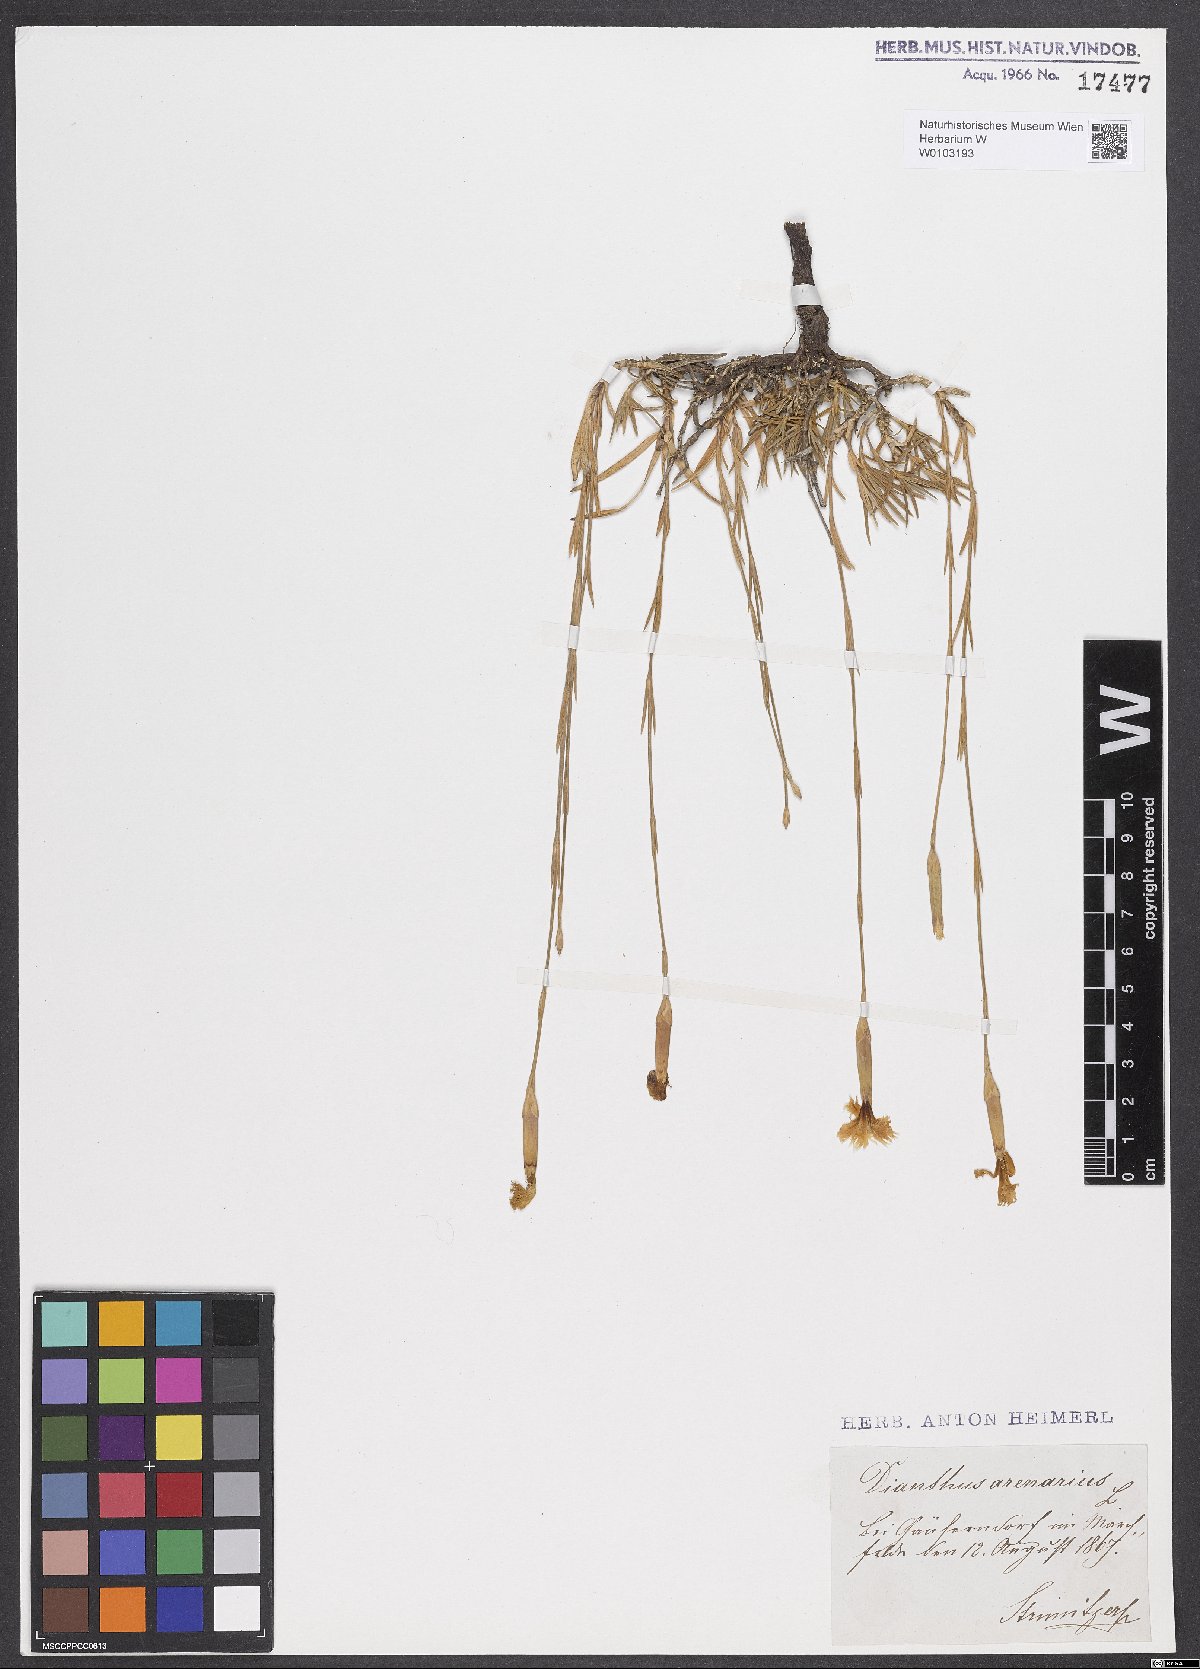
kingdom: Plantae
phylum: Tracheophyta
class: Magnoliopsida
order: Caryophyllales
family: Caryophyllaceae
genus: Dianthus
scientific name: Dianthus arenarius
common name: Stone pink
